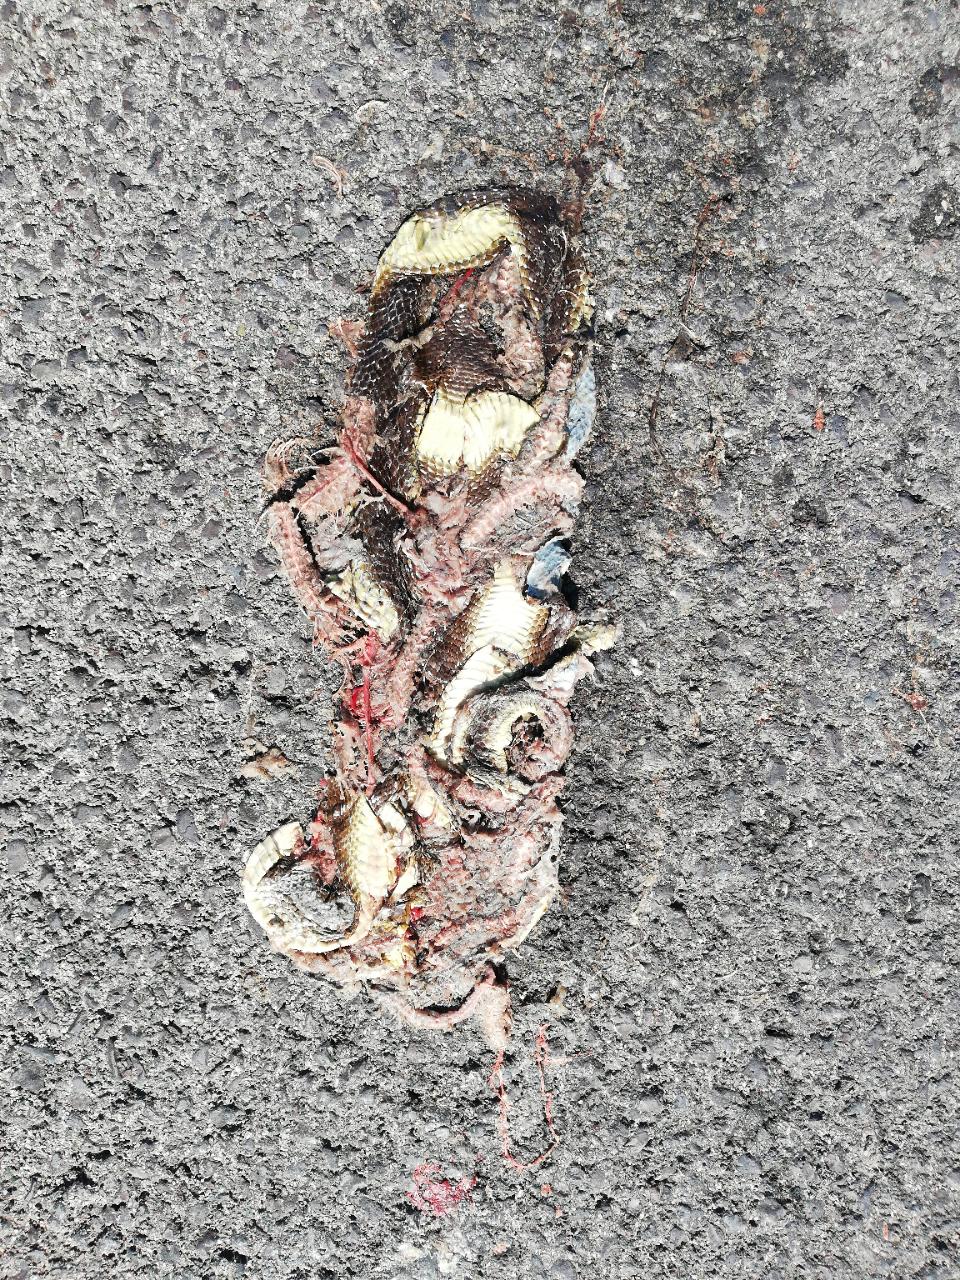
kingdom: Animalia
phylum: Chordata
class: Squamata
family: Colubridae
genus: Zamenis
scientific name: Zamenis longissimus
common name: Aesculapean snake
